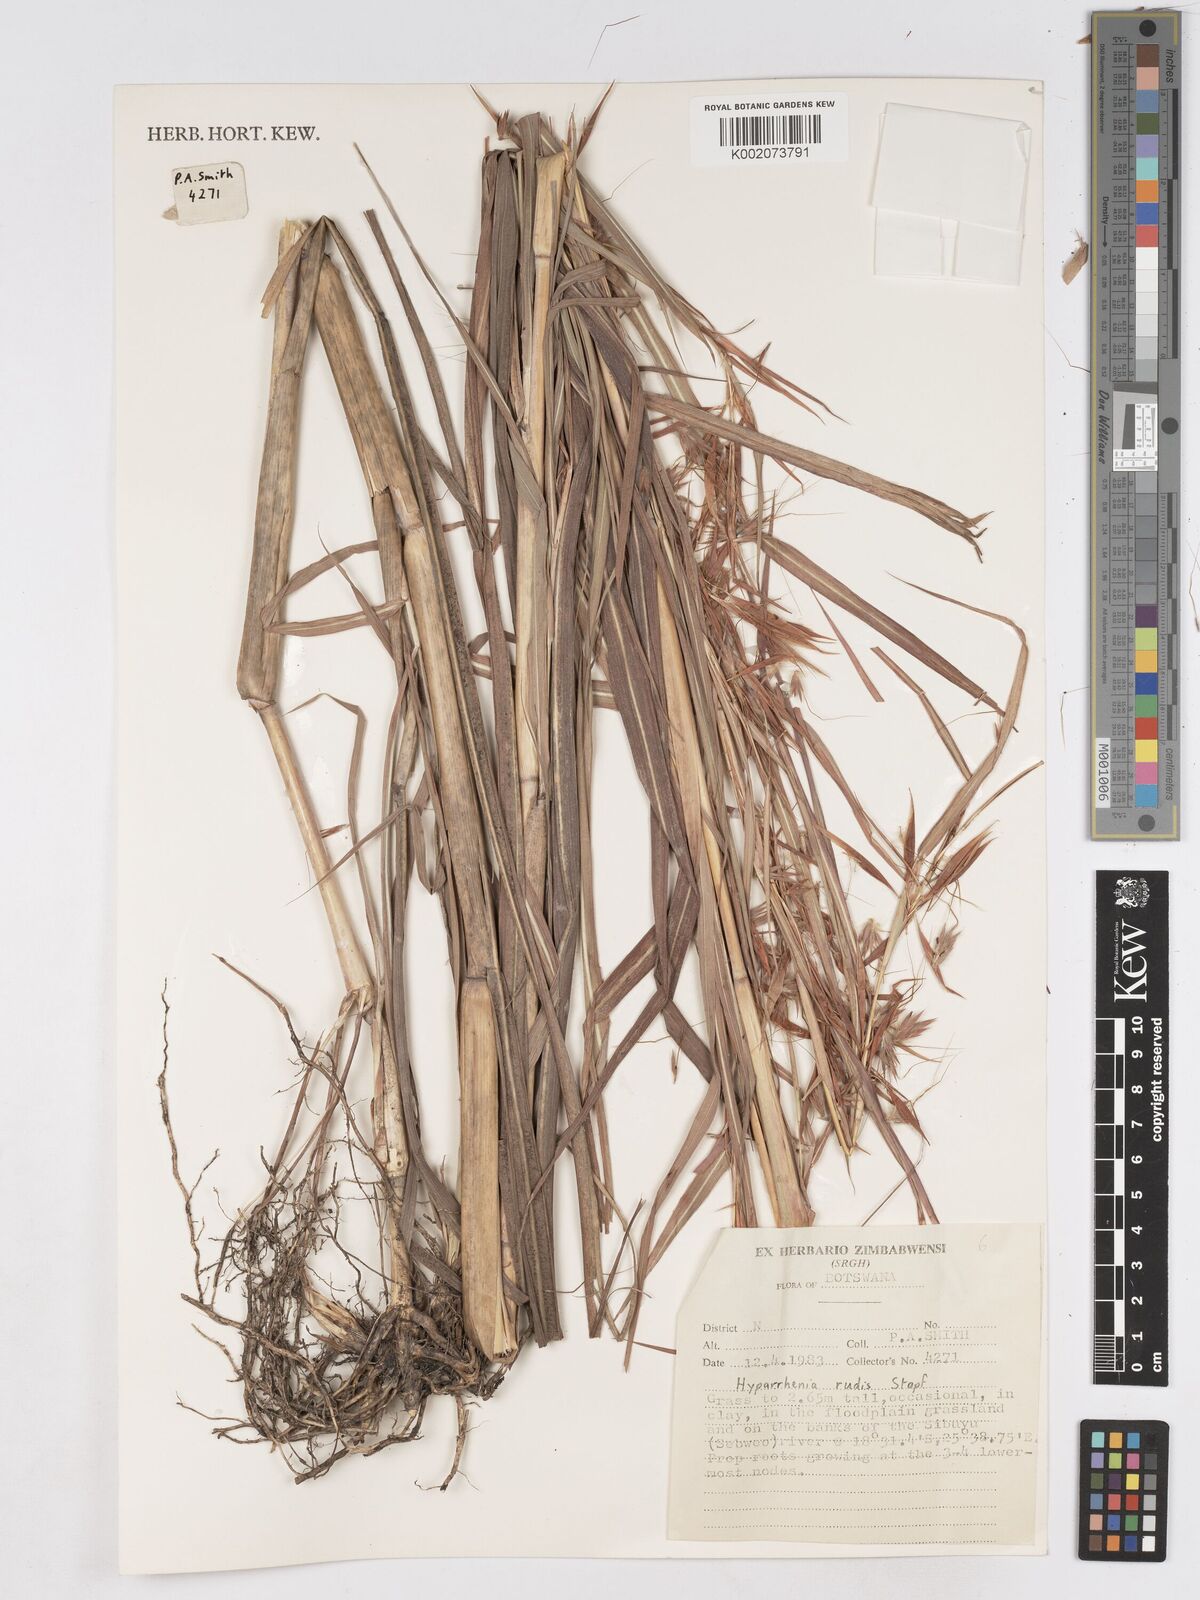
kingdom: Plantae
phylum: Tracheophyta
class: Liliopsida
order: Poales
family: Poaceae
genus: Hyparrhenia
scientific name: Hyparrhenia rudis
